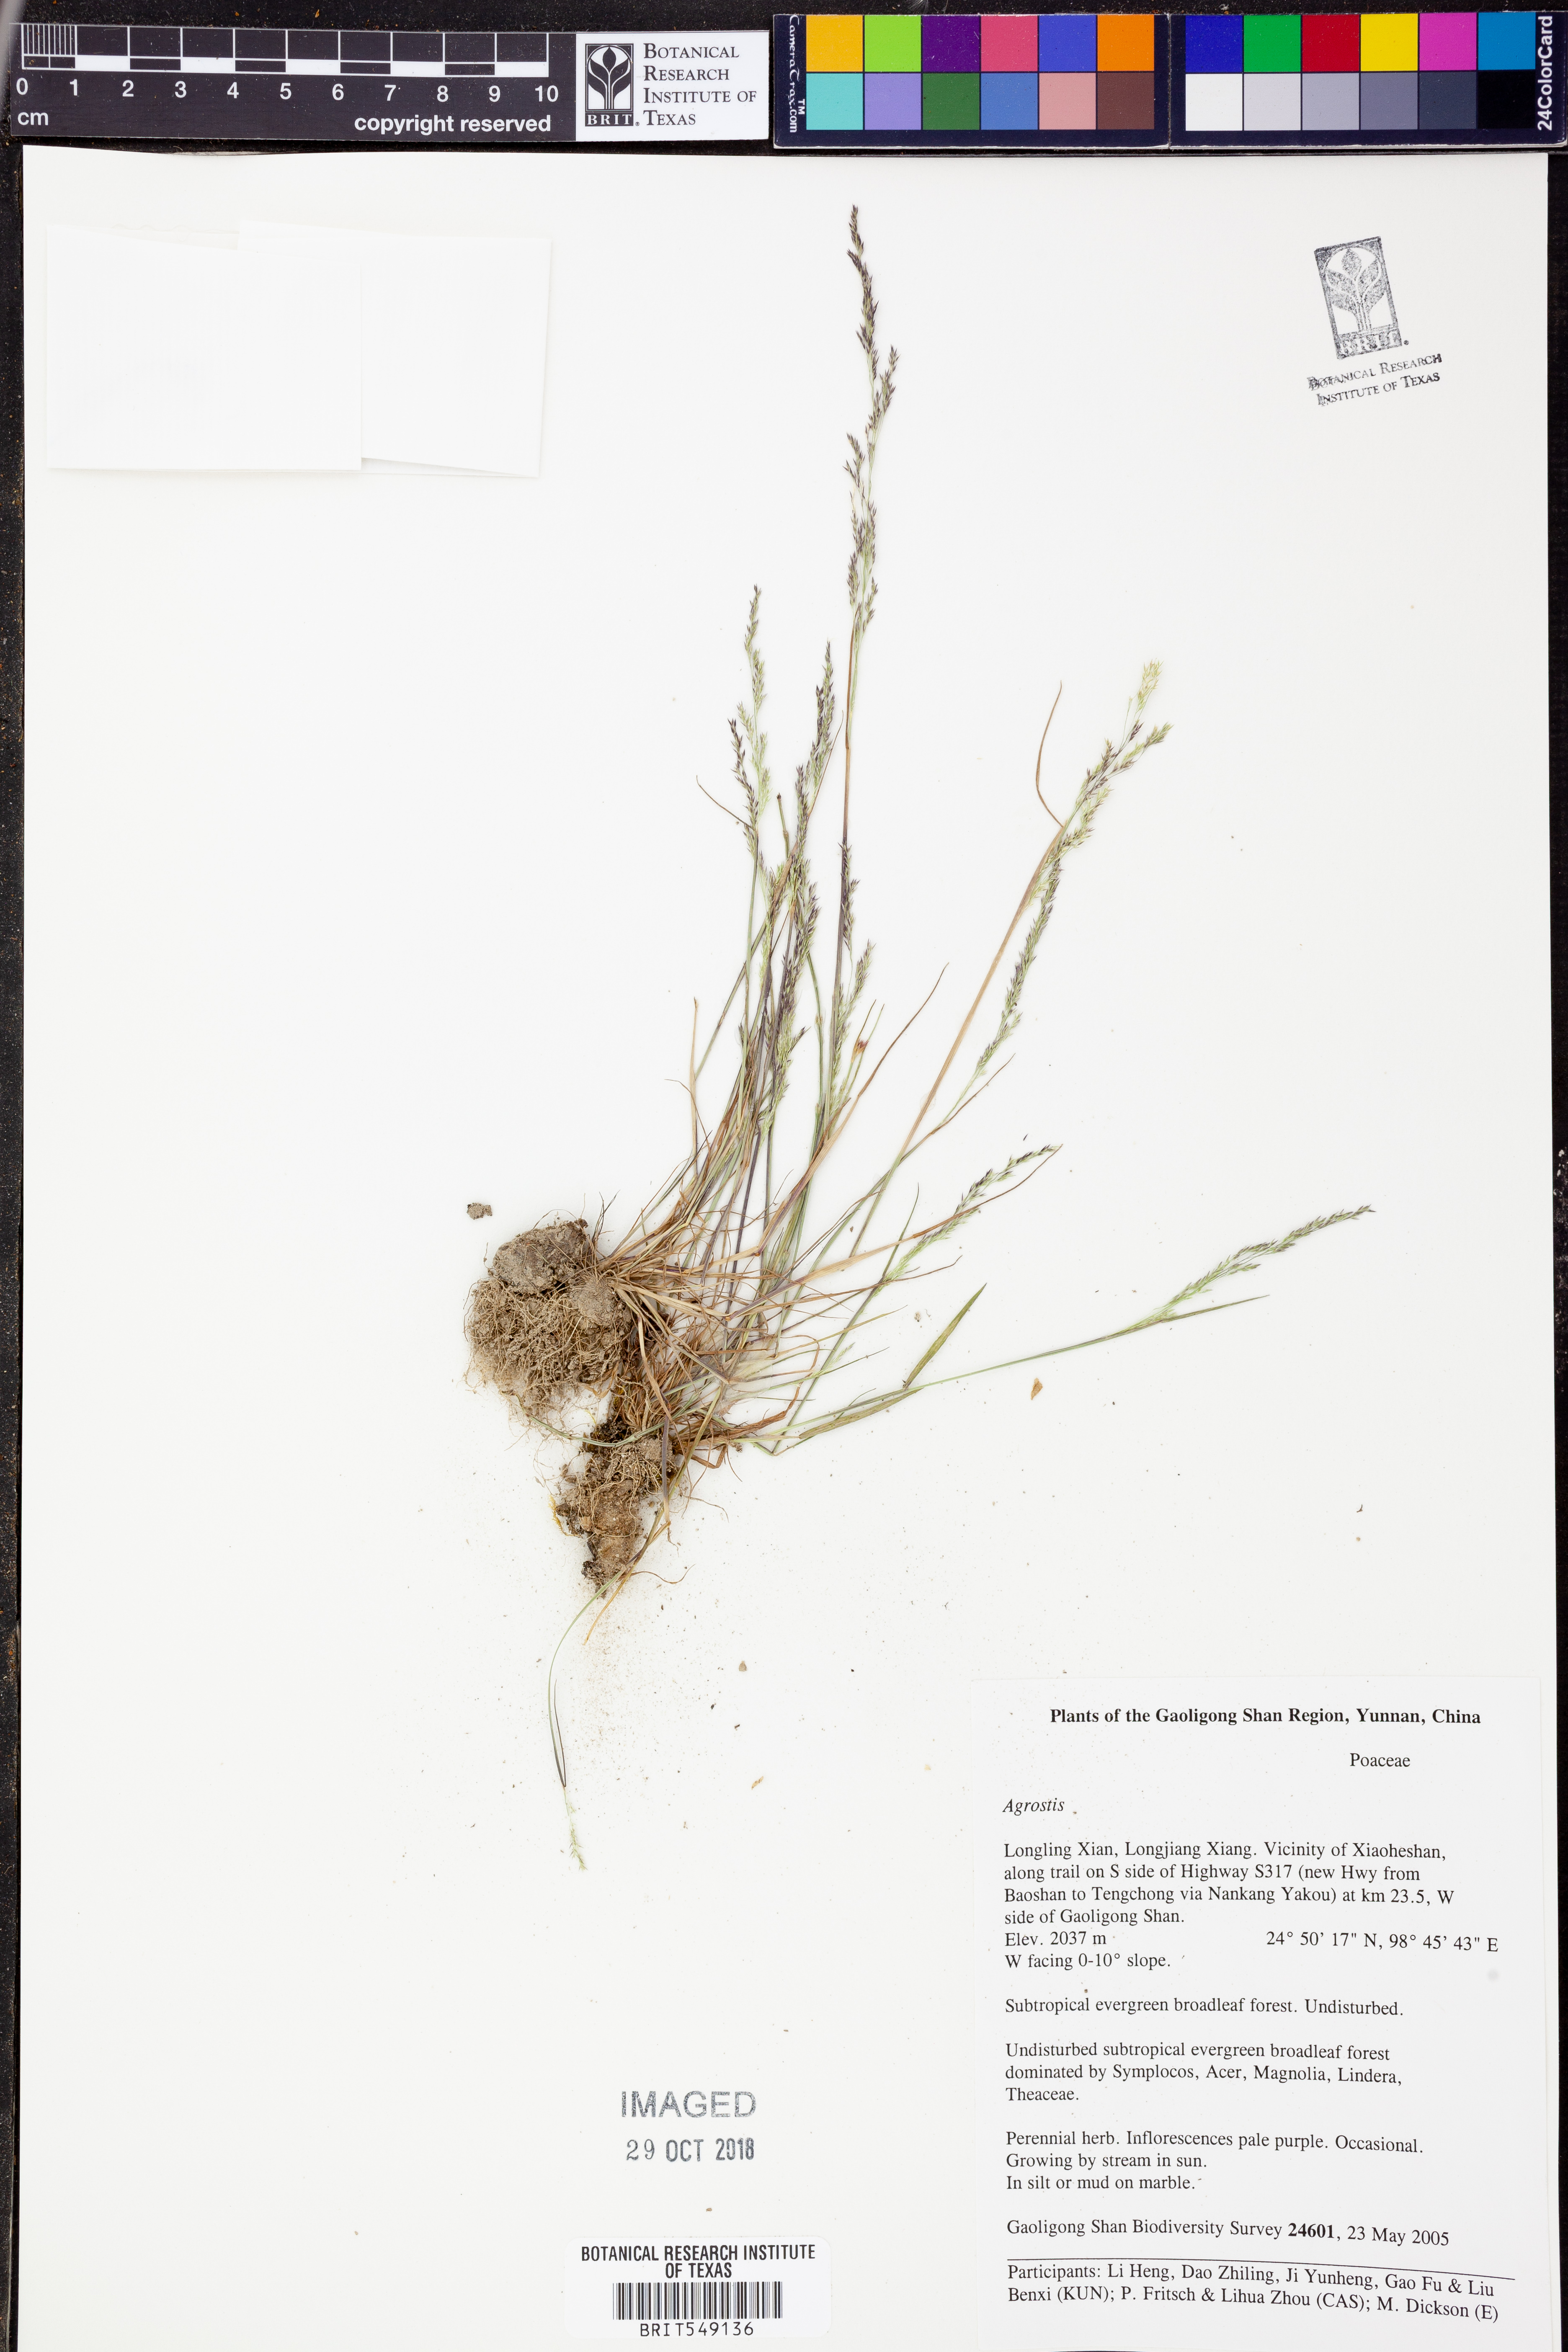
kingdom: Plantae
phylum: Tracheophyta
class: Liliopsida
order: Poales
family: Poaceae
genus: Agrostis
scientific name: Agrostis
